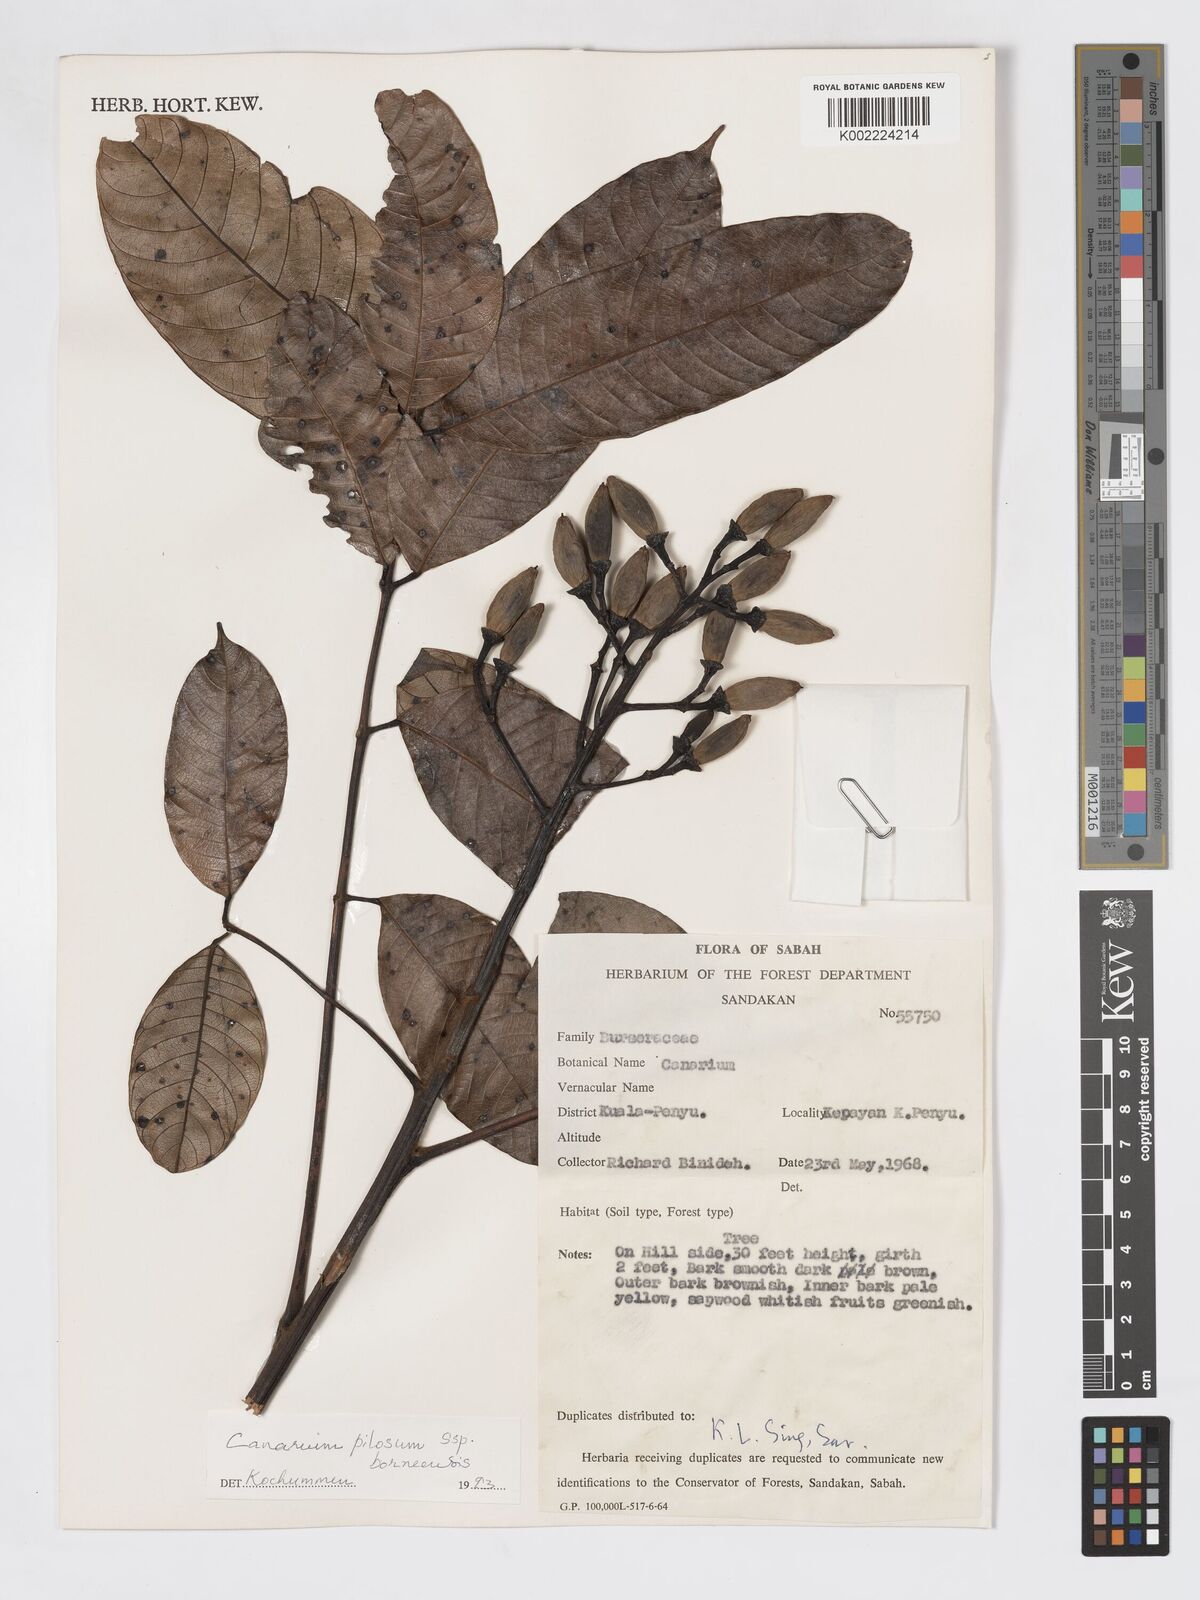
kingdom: Plantae
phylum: Tracheophyta
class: Magnoliopsida
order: Sapindales
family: Burseraceae
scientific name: Burseraceae
